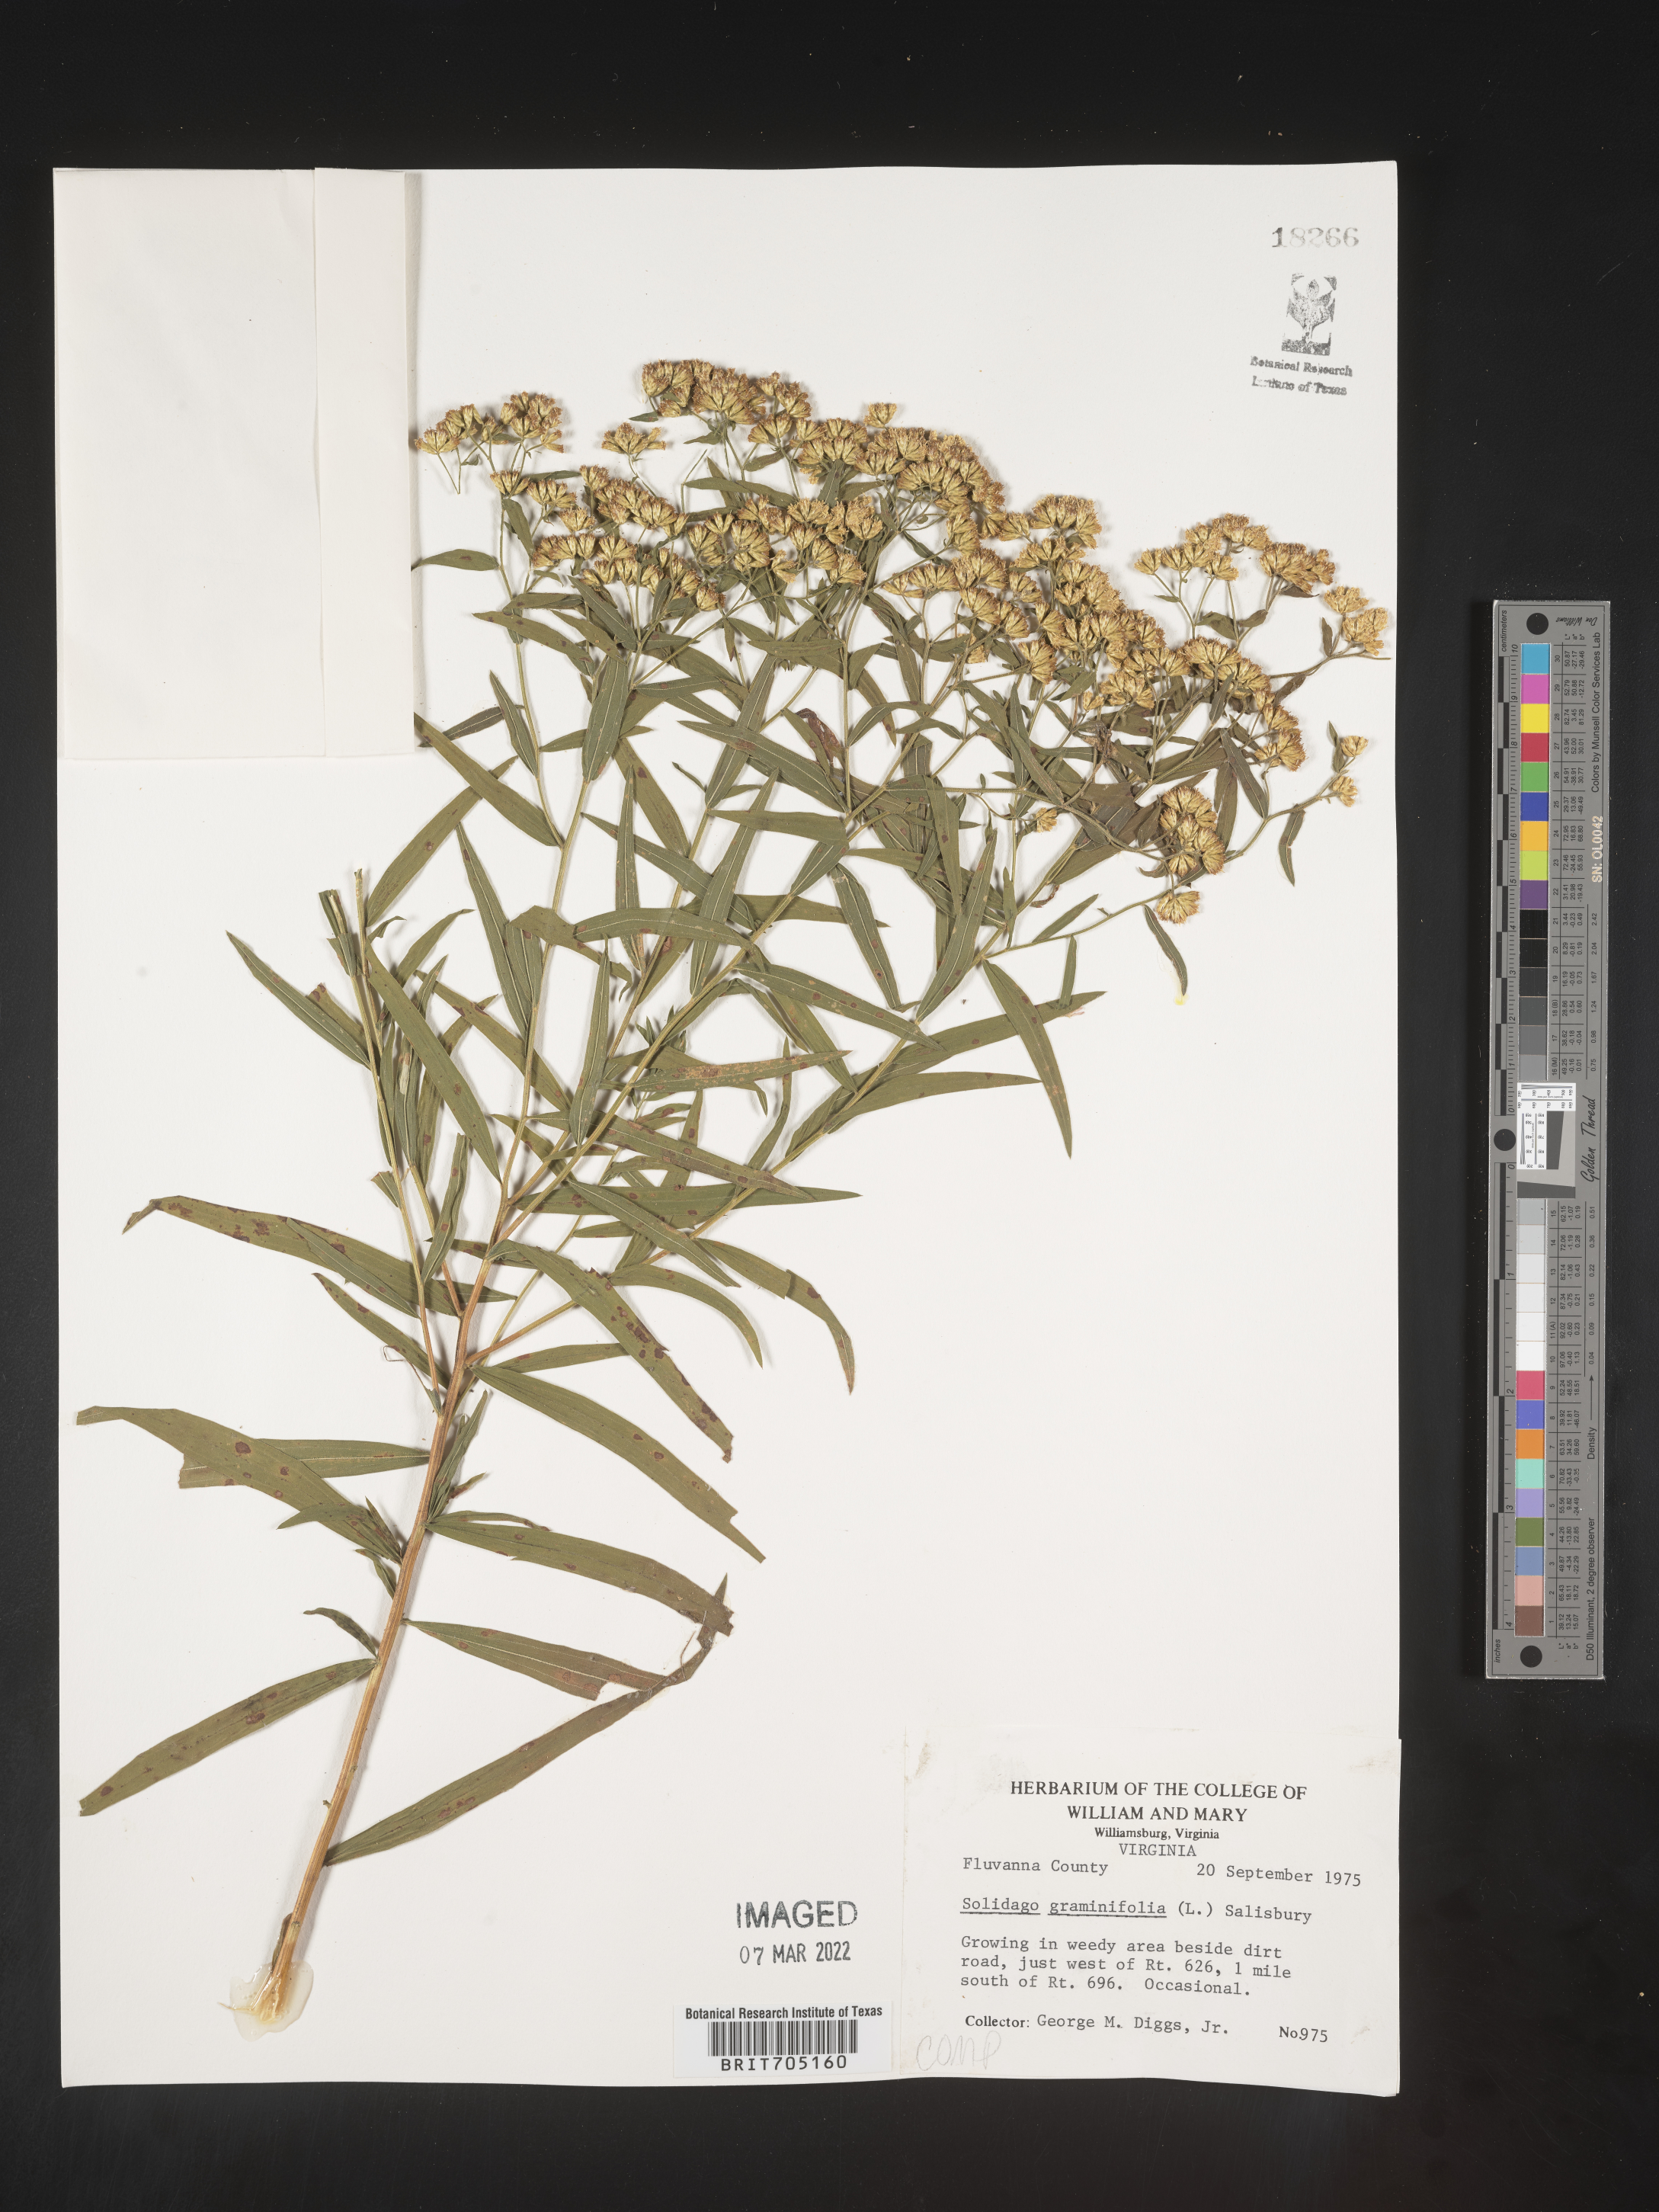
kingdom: Plantae
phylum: Tracheophyta
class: Magnoliopsida
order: Asterales
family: Asteraceae
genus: Euthamia
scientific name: Euthamia graminifolia
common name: Common goldentop
